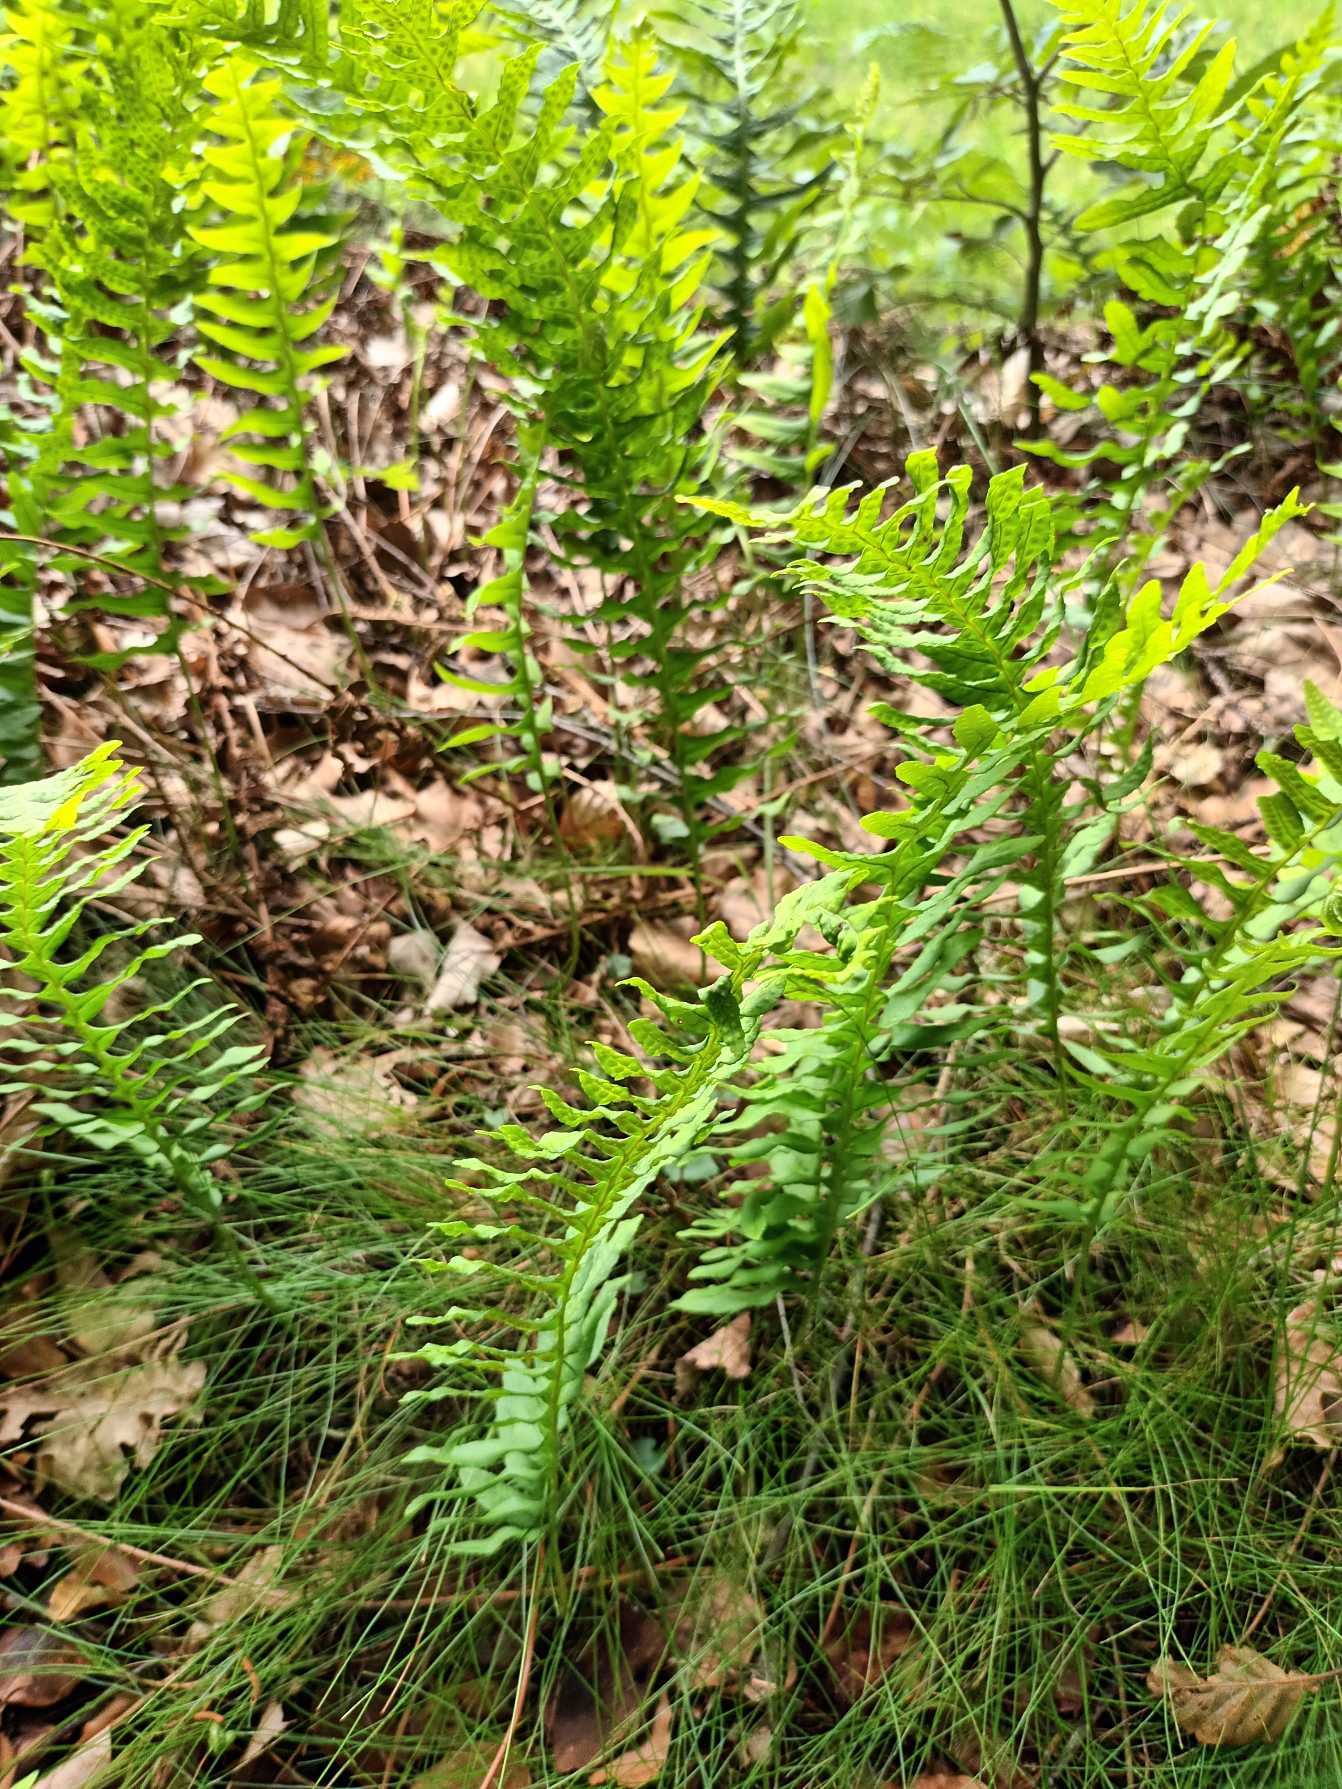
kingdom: Plantae
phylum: Tracheophyta
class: Polypodiopsida
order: Polypodiales
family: Polypodiaceae
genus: Polypodium
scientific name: Polypodium vulgare
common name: Almindelig engelsød
